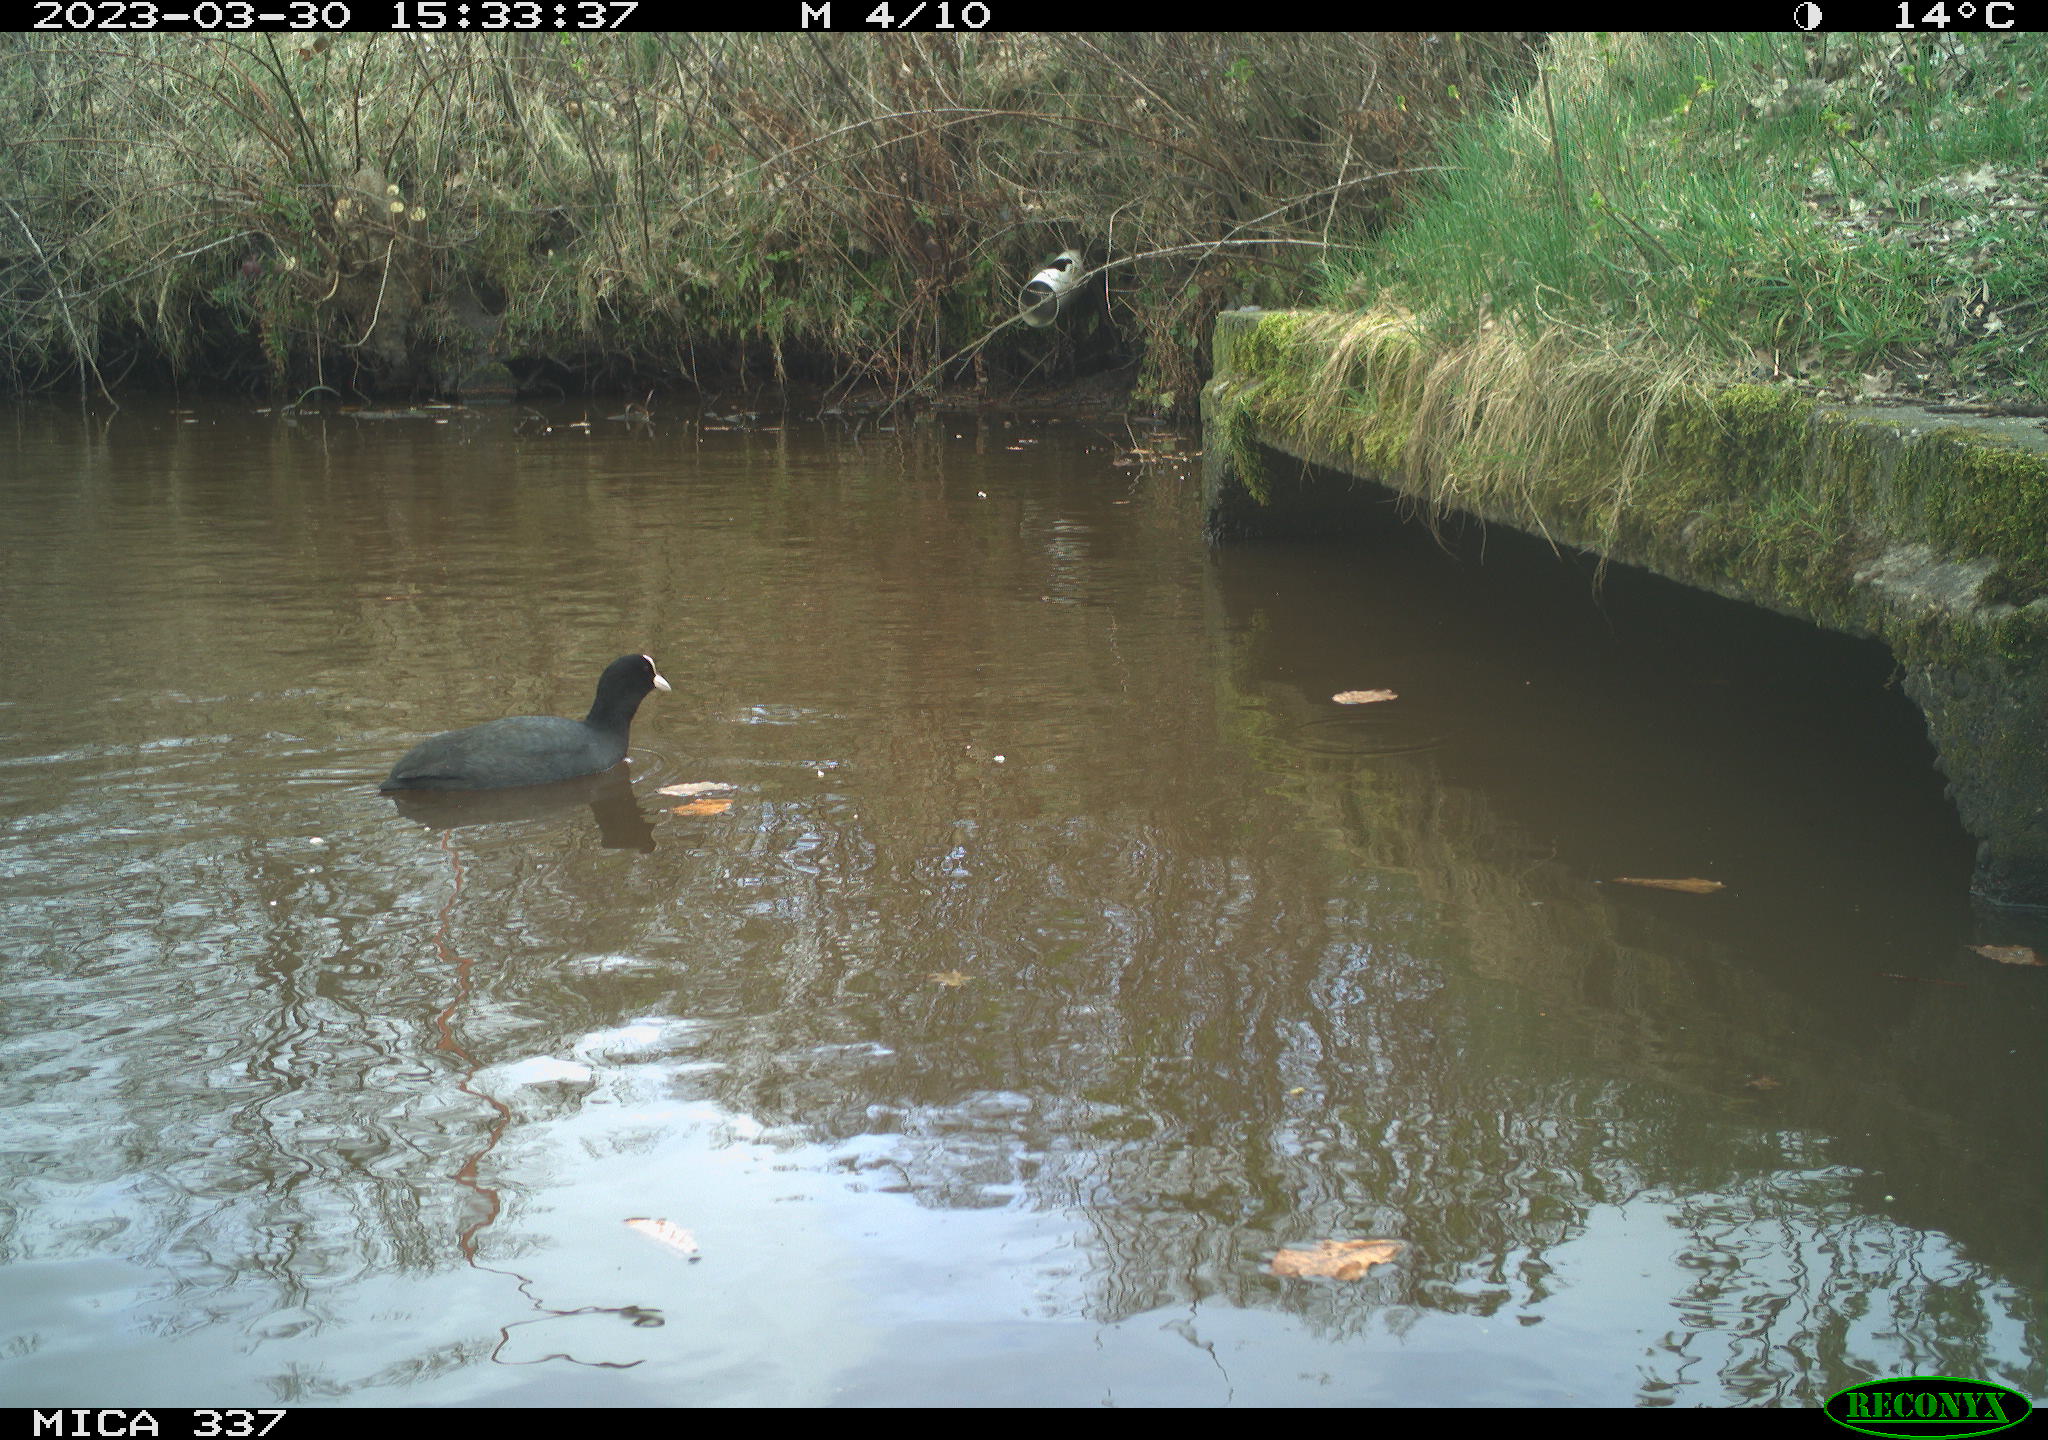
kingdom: Animalia
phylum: Chordata
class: Aves
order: Gruiformes
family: Rallidae
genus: Fulica
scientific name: Fulica atra
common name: Eurasian coot
